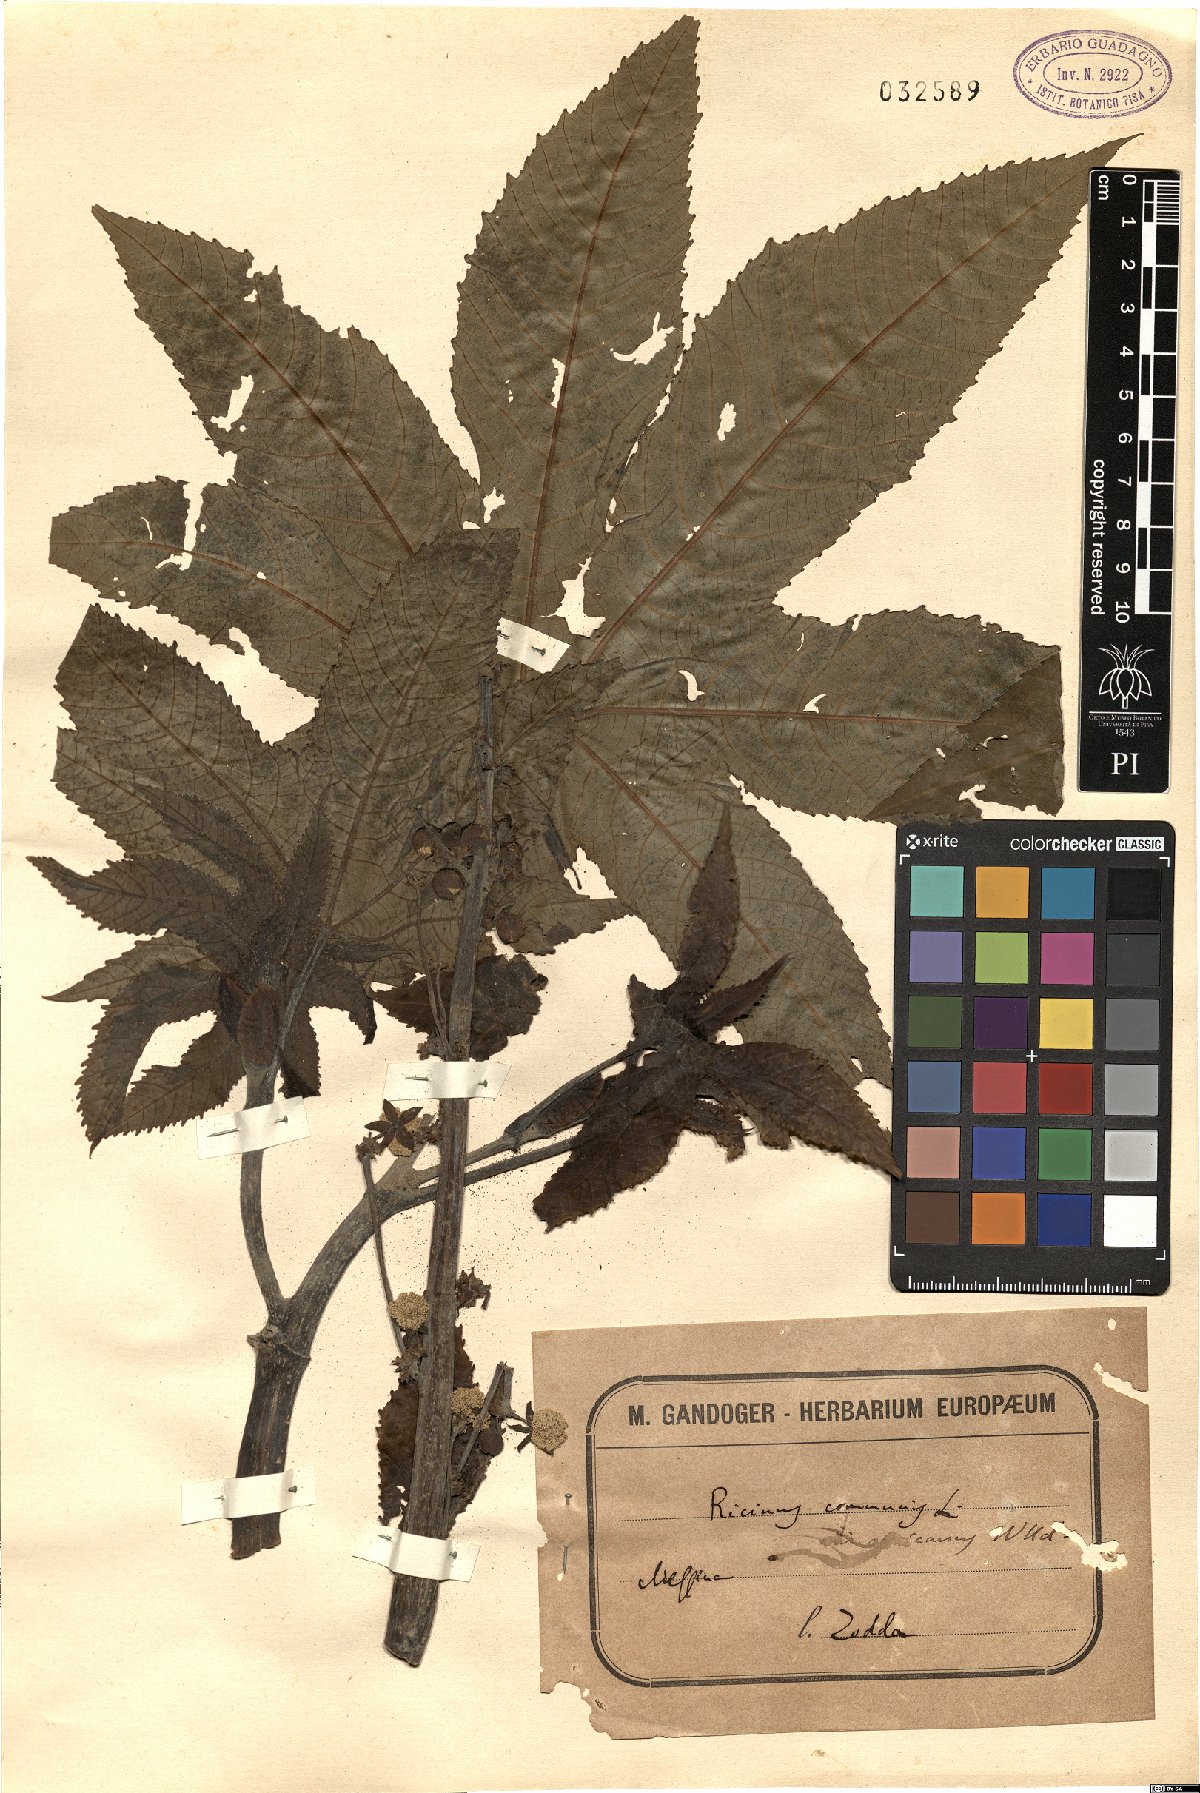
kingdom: Plantae
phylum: Tracheophyta
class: Magnoliopsida
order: Malpighiales
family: Euphorbiaceae
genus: Ricinus
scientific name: Ricinus communis
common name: Castor-oil-plant
